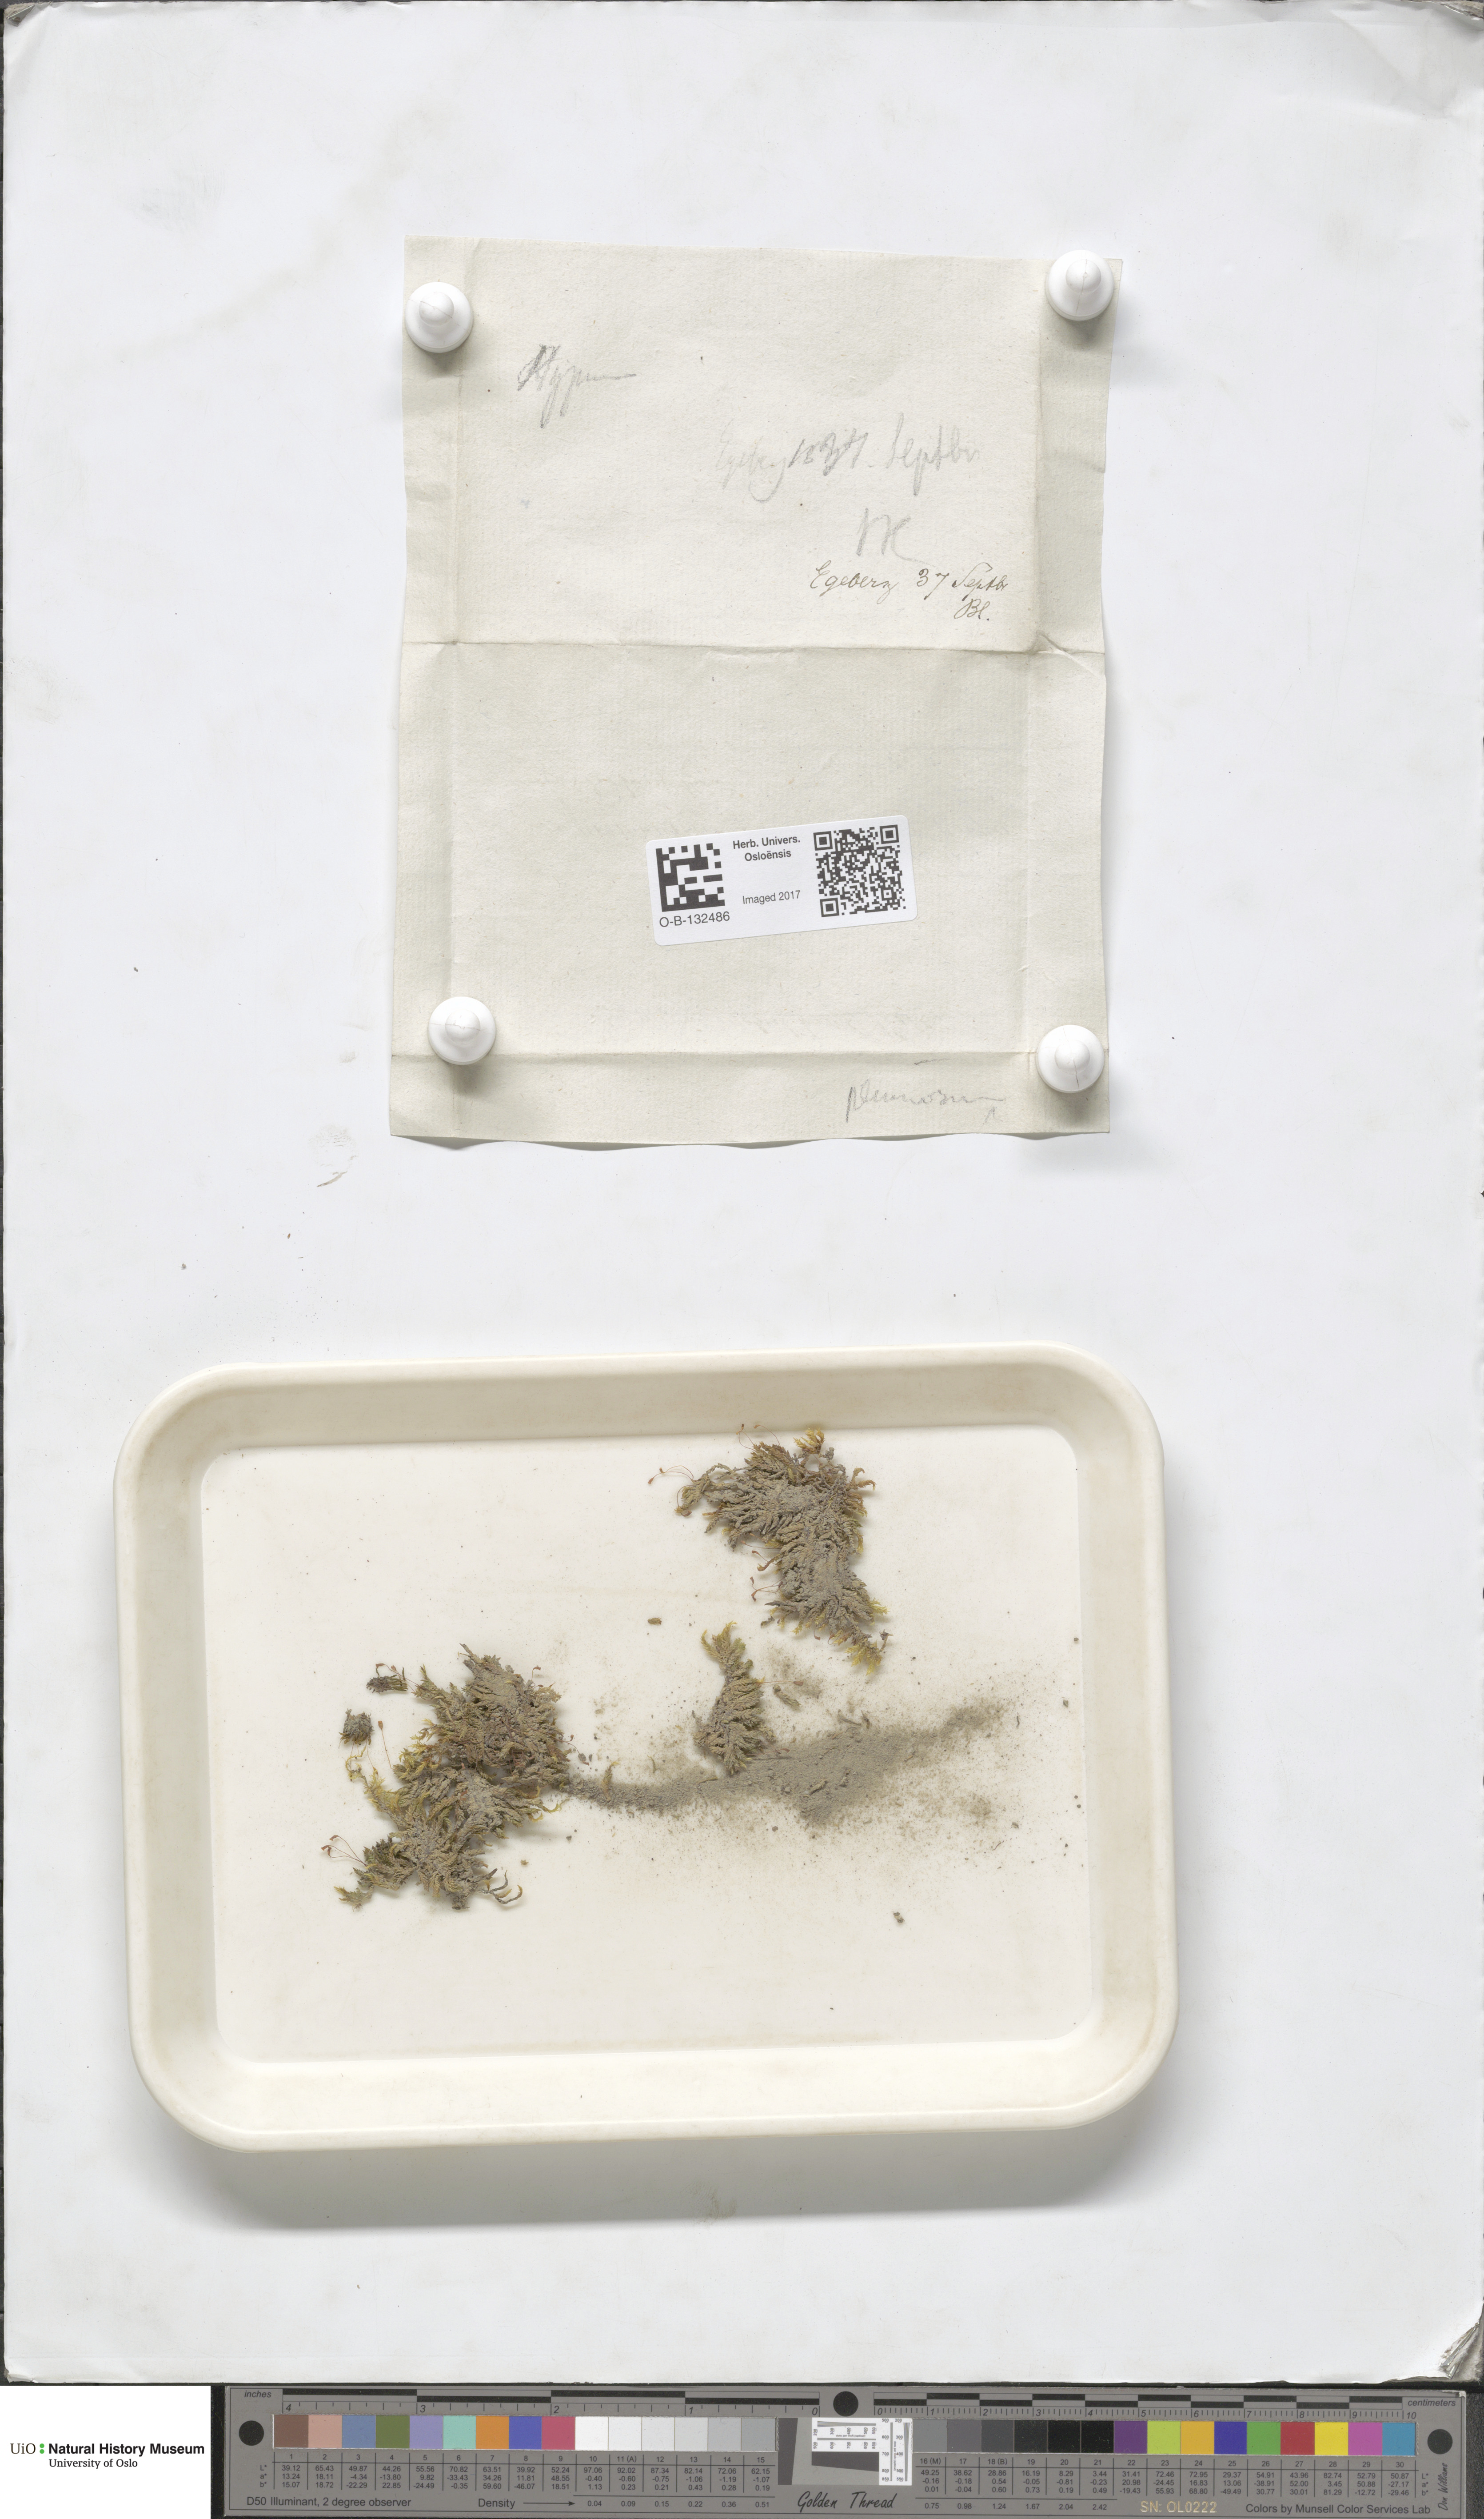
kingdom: Plantae
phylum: Bryophyta
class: Bryopsida
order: Hypnales
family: Brachytheciaceae
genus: Sciuro-hypnum
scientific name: Sciuro-hypnum plumosum
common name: Rusty feather-moss
